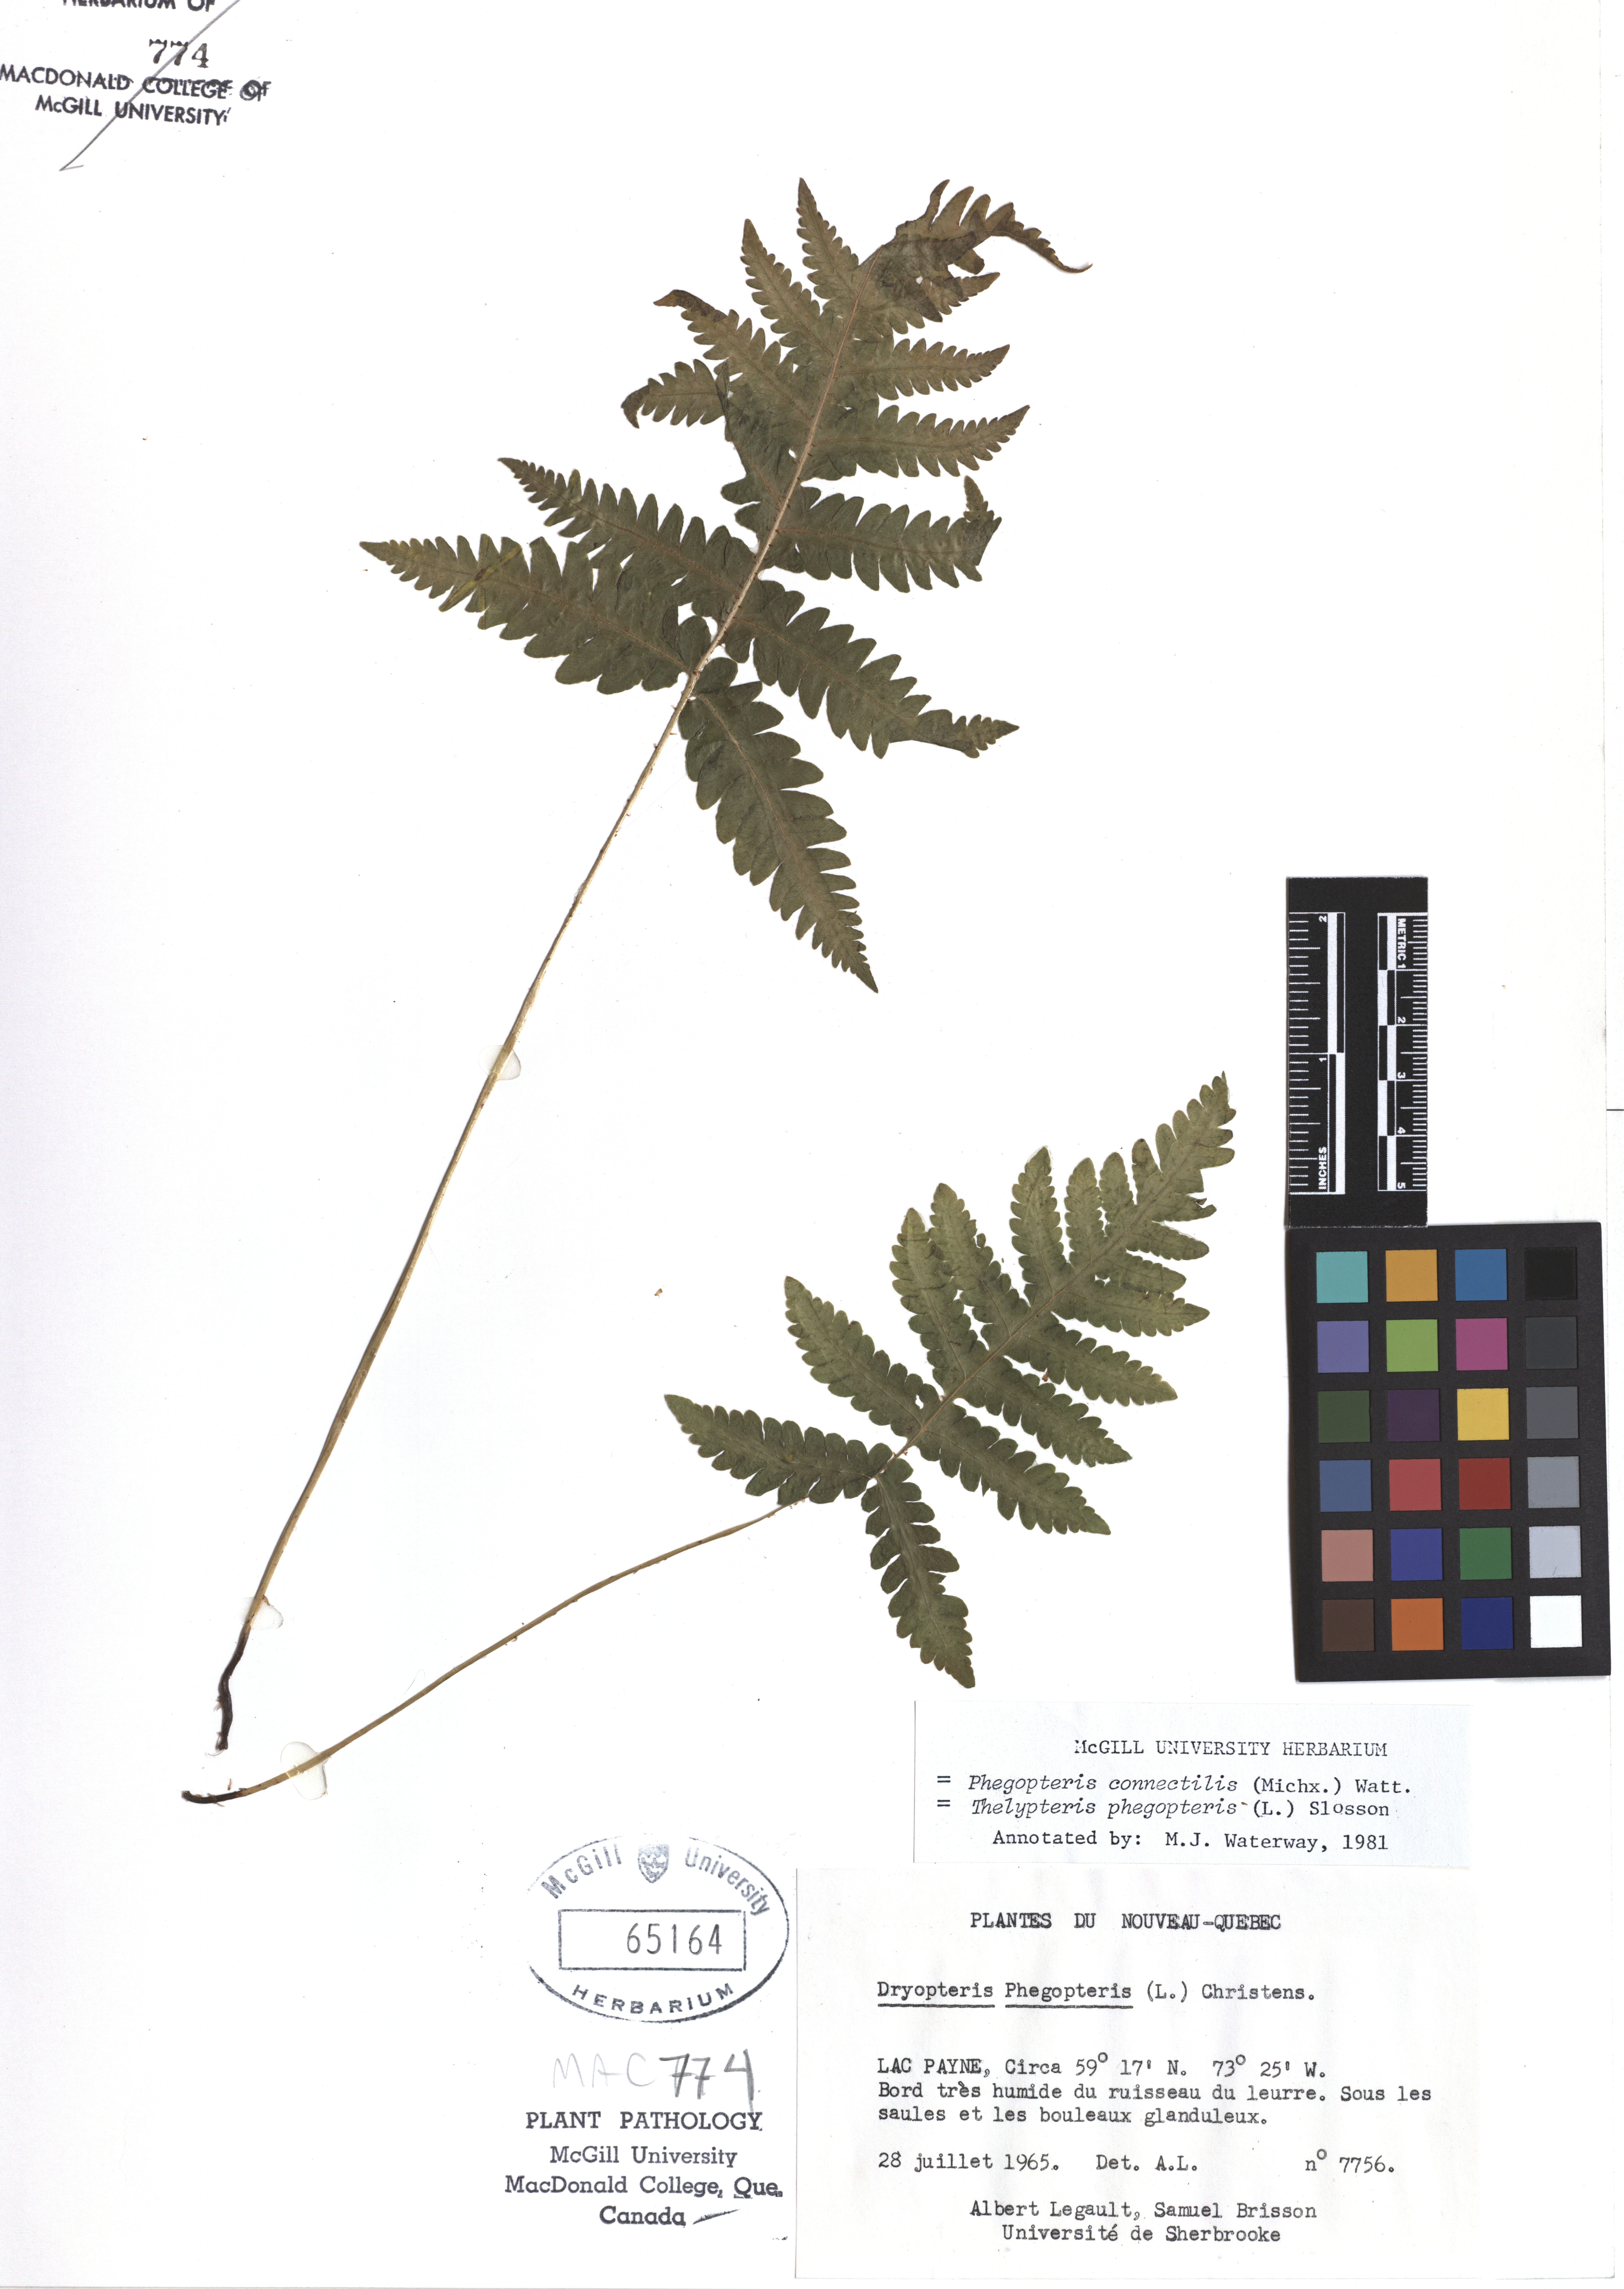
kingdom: Plantae
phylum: Tracheophyta
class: Polypodiopsida
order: Polypodiales
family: Thelypteridaceae
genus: Phegopteris
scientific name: Phegopteris connectilis
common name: Beech fern
